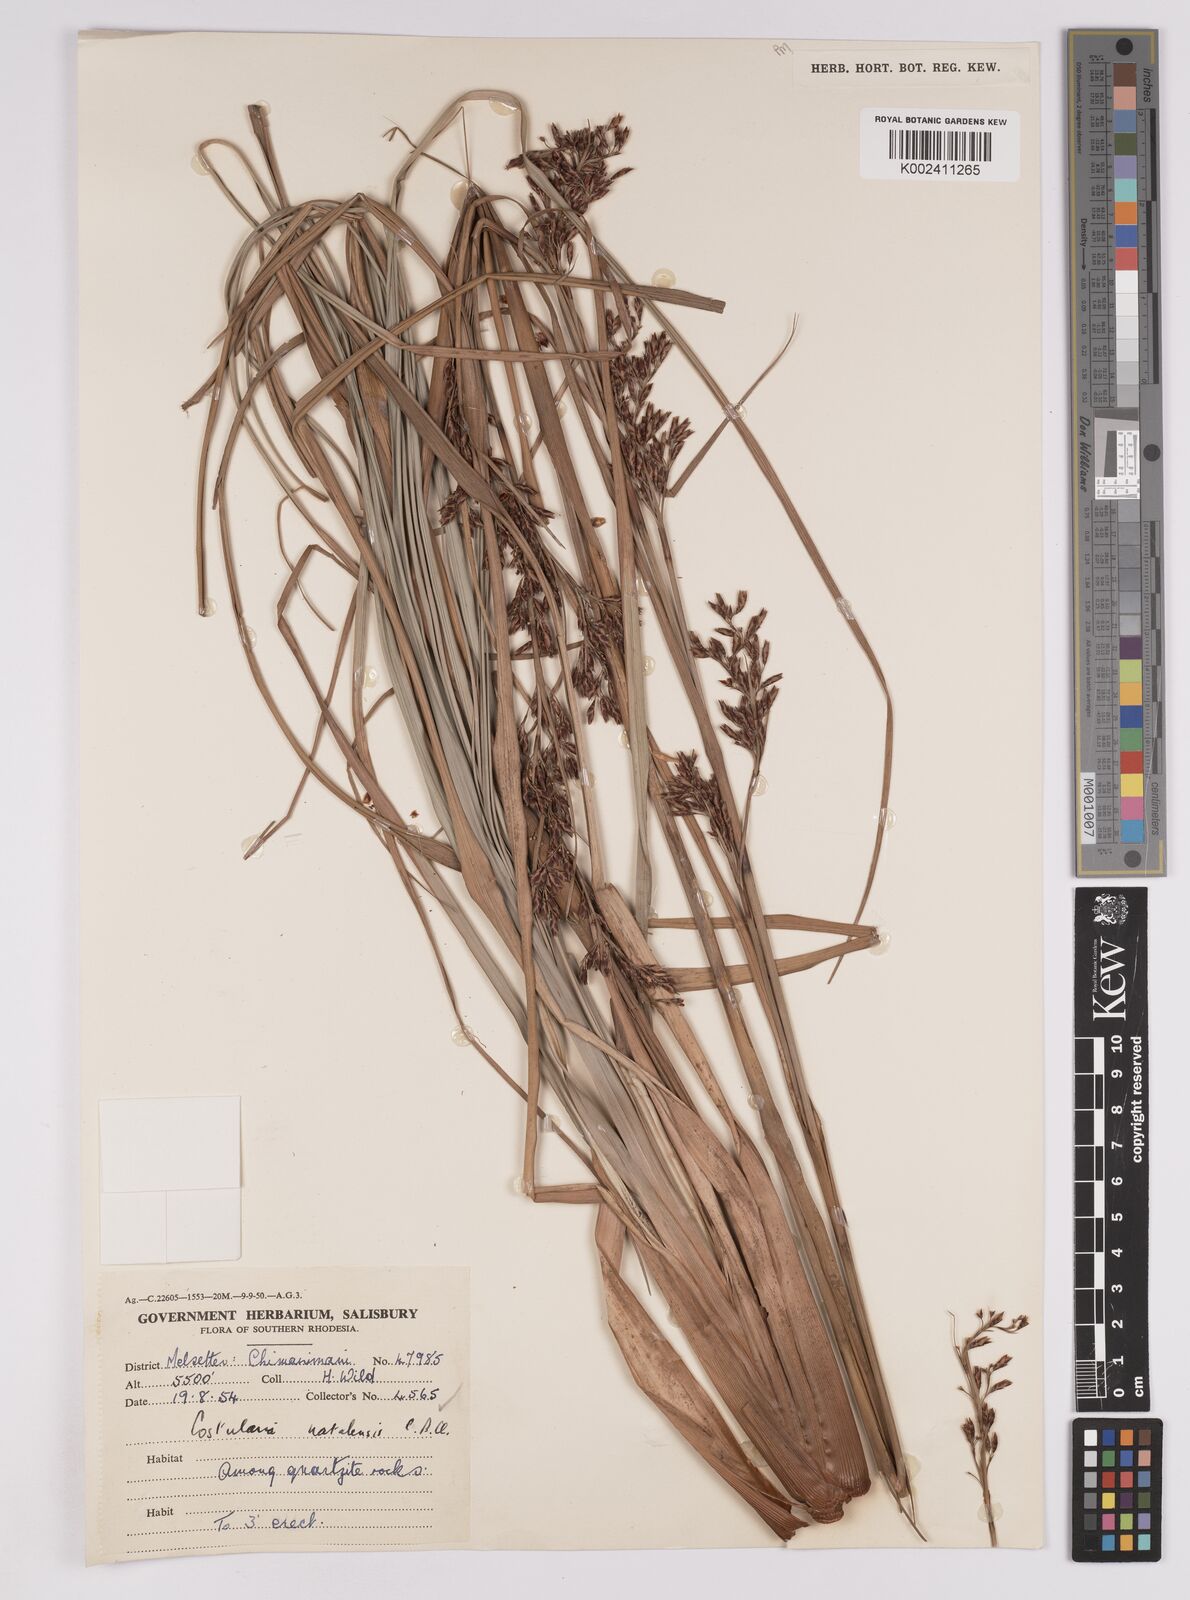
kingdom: Plantae
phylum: Tracheophyta
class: Liliopsida
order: Poales
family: Cyperaceae
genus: Costularia
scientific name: Costularia natalensis
